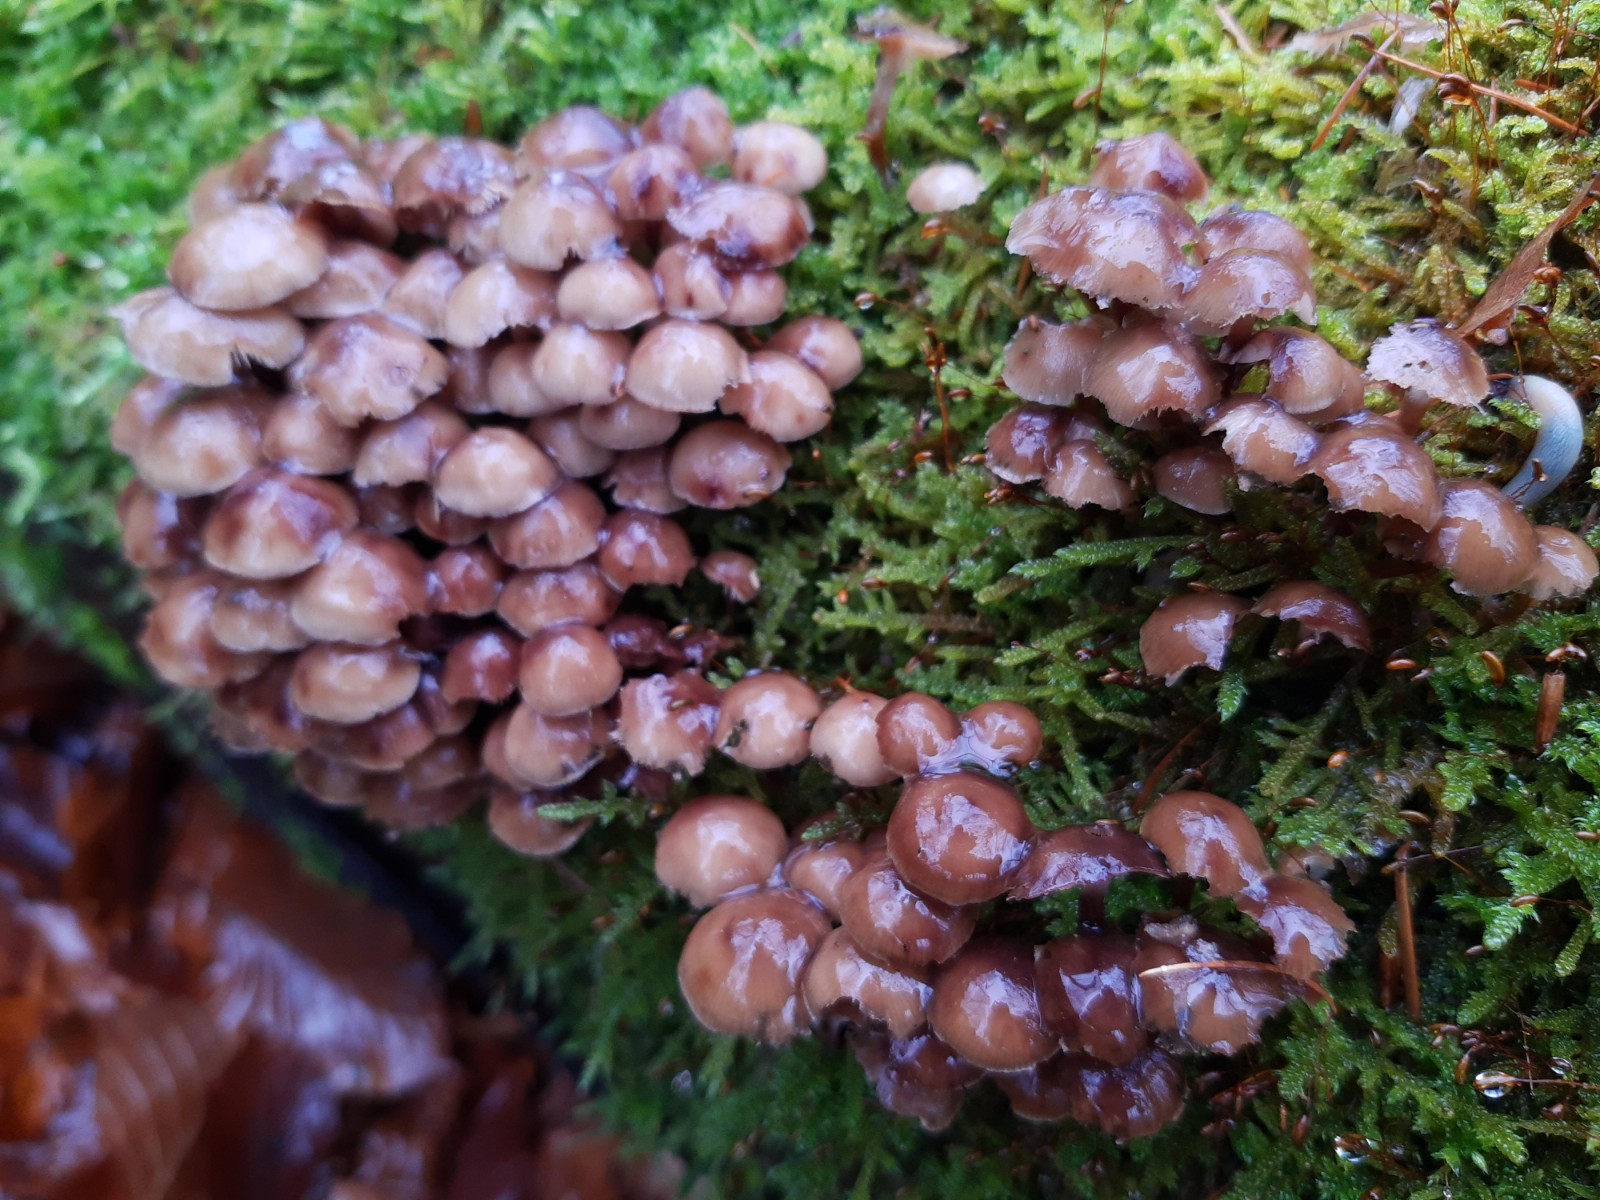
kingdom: Fungi
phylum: Basidiomycota
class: Agaricomycetes
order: Agaricales
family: Mycenaceae
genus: Mycena
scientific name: Mycena tintinnabulum
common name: vinter-huesvamp
